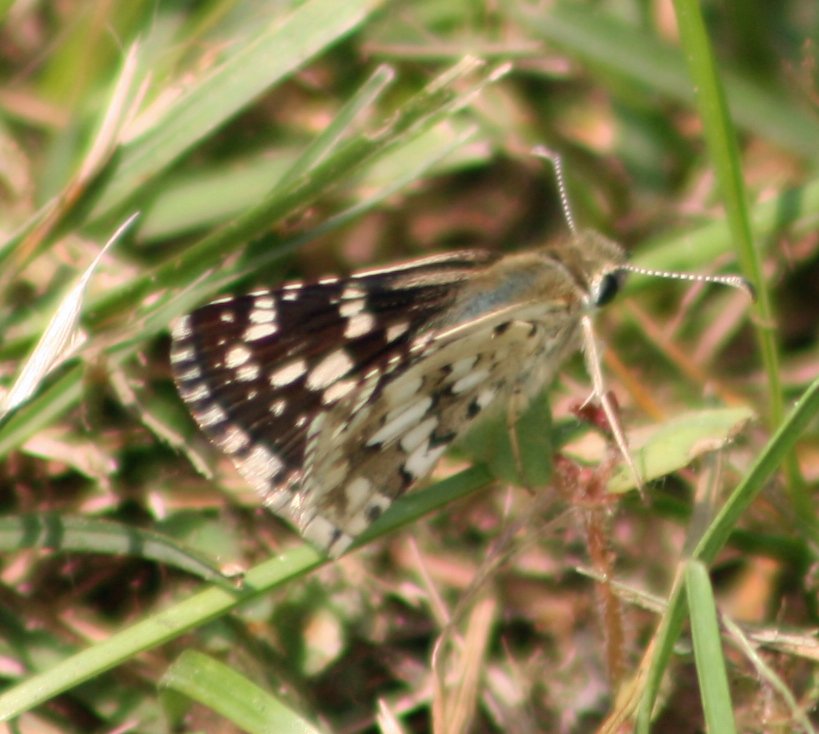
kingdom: Animalia
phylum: Arthropoda
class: Insecta
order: Lepidoptera
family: Hesperiidae
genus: Pyrgus
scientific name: Pyrgus communis
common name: Common Checkered-Skipper
